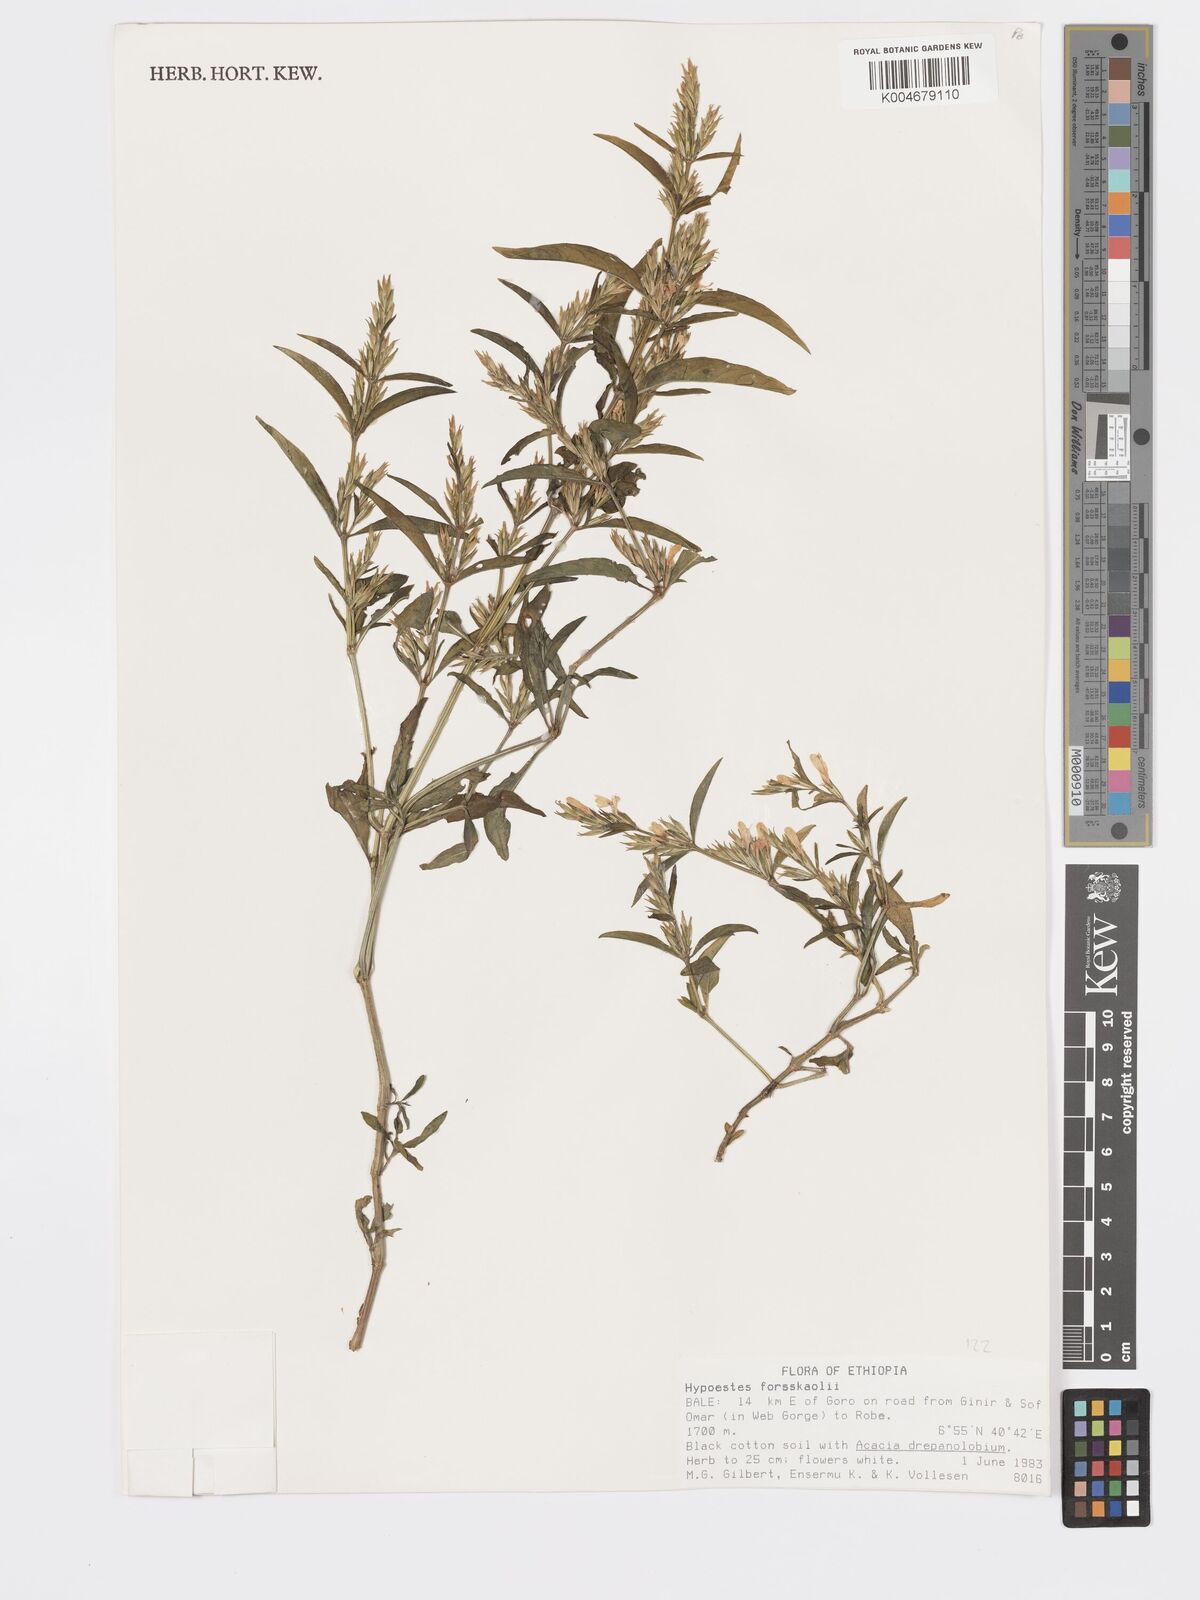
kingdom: Plantae
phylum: Tracheophyta
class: Magnoliopsida
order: Lamiales
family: Acanthaceae
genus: Hypoestes
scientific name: Hypoestes forskaolii
